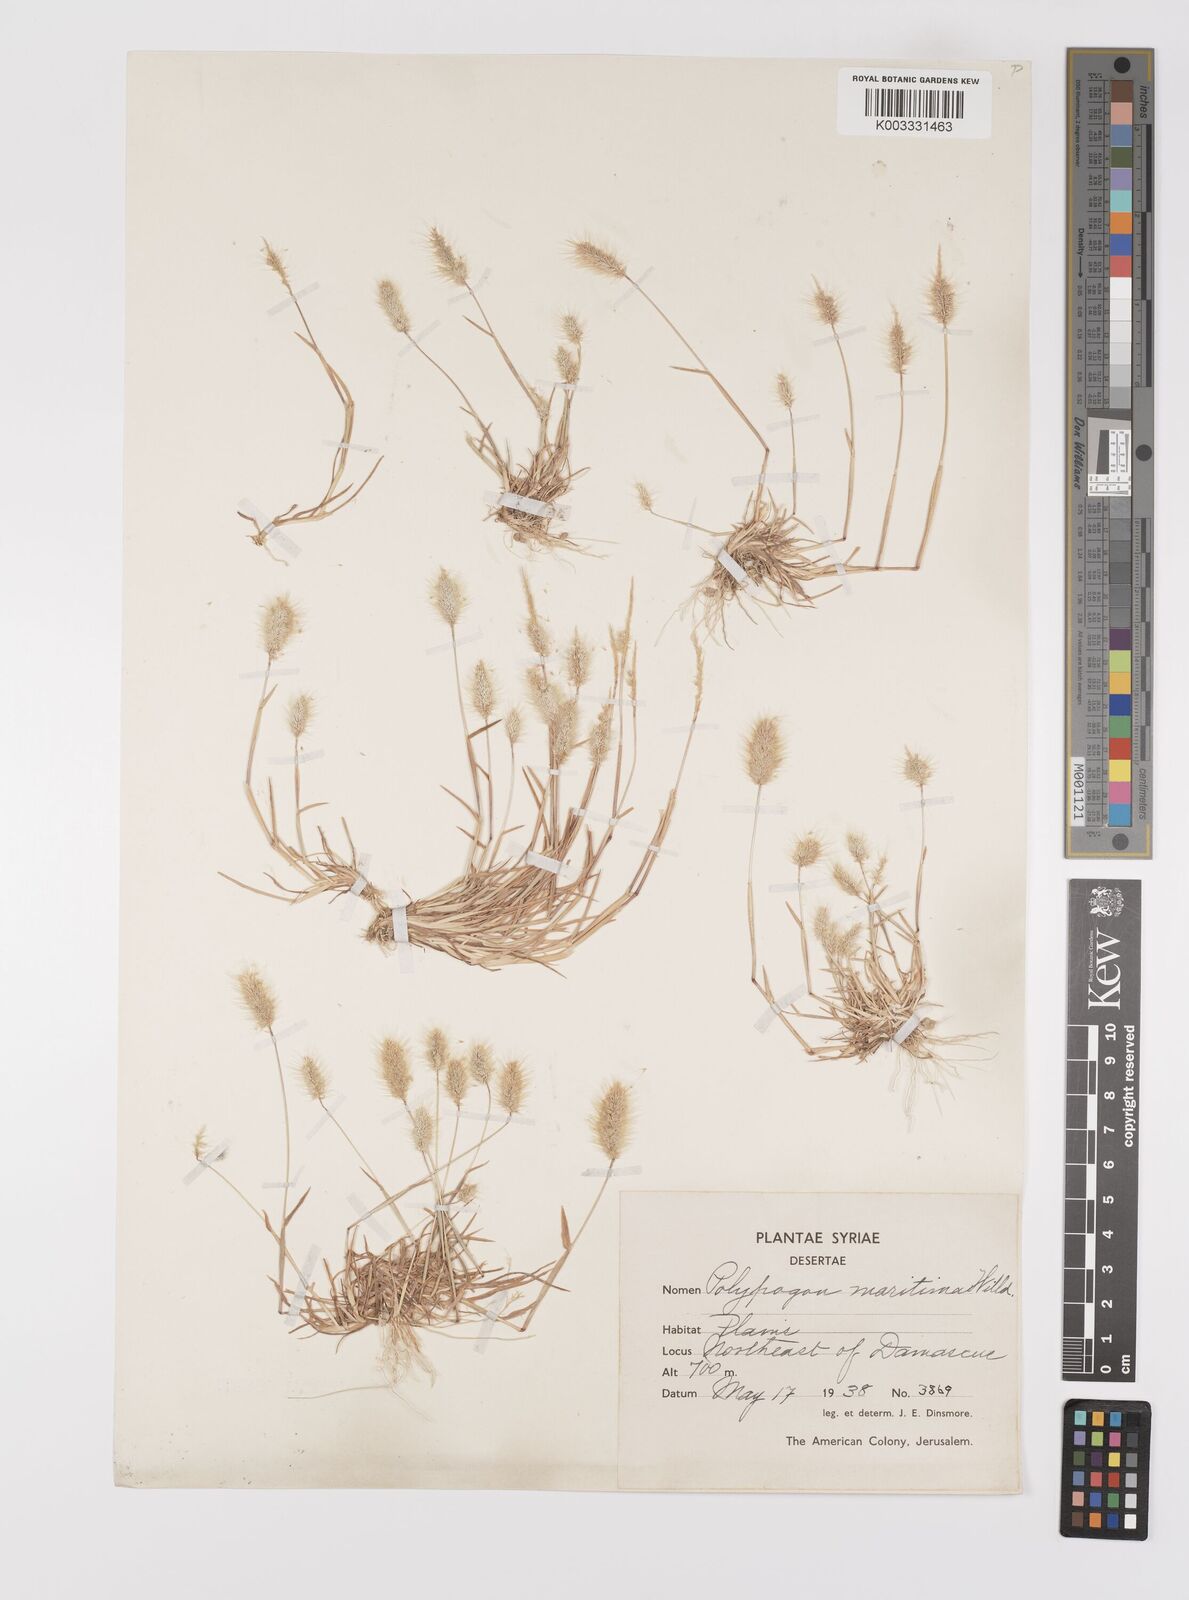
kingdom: Plantae
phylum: Tracheophyta
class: Liliopsida
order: Poales
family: Poaceae
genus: Polypogon
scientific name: Polypogon maritimus
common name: Mediterranean rabbitsfoot grass
